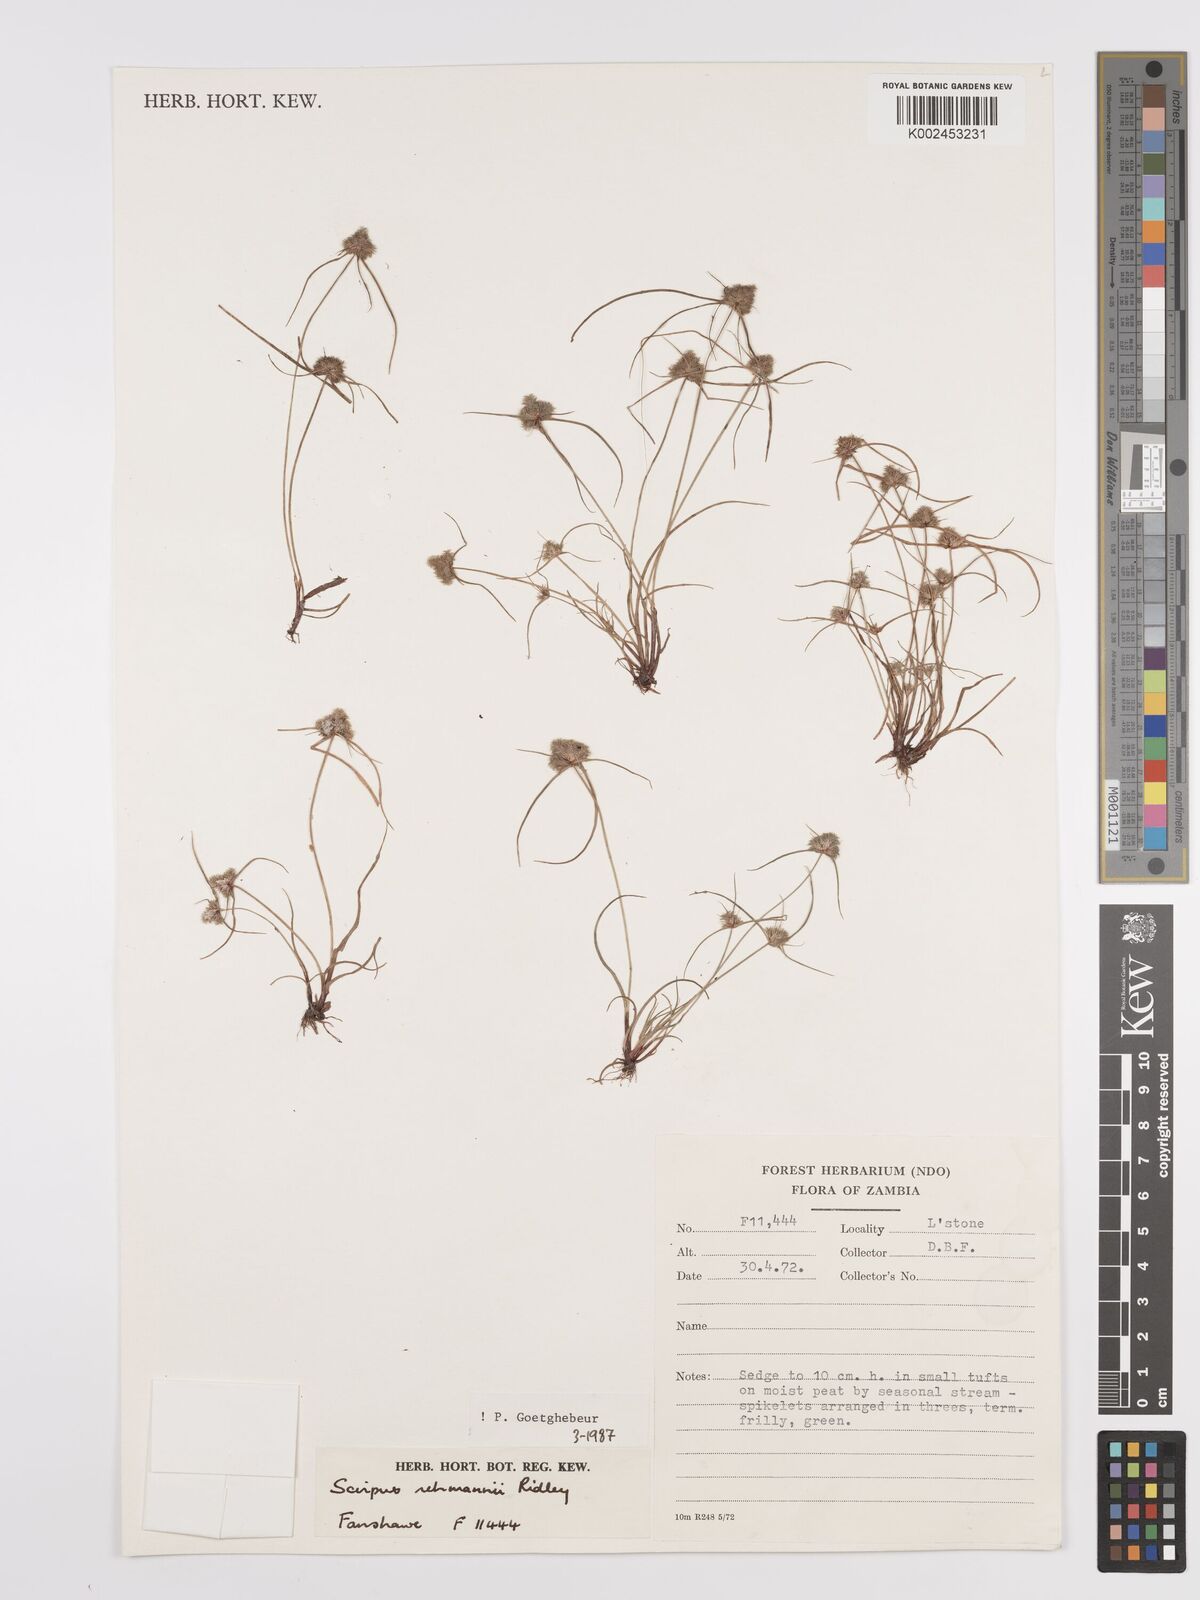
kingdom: Plantae
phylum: Tracheophyta
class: Liliopsida
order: Poales
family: Cyperaceae
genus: Cyperus
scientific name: Cyperus sanguinolentus
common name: Purpleglume flatsedge
